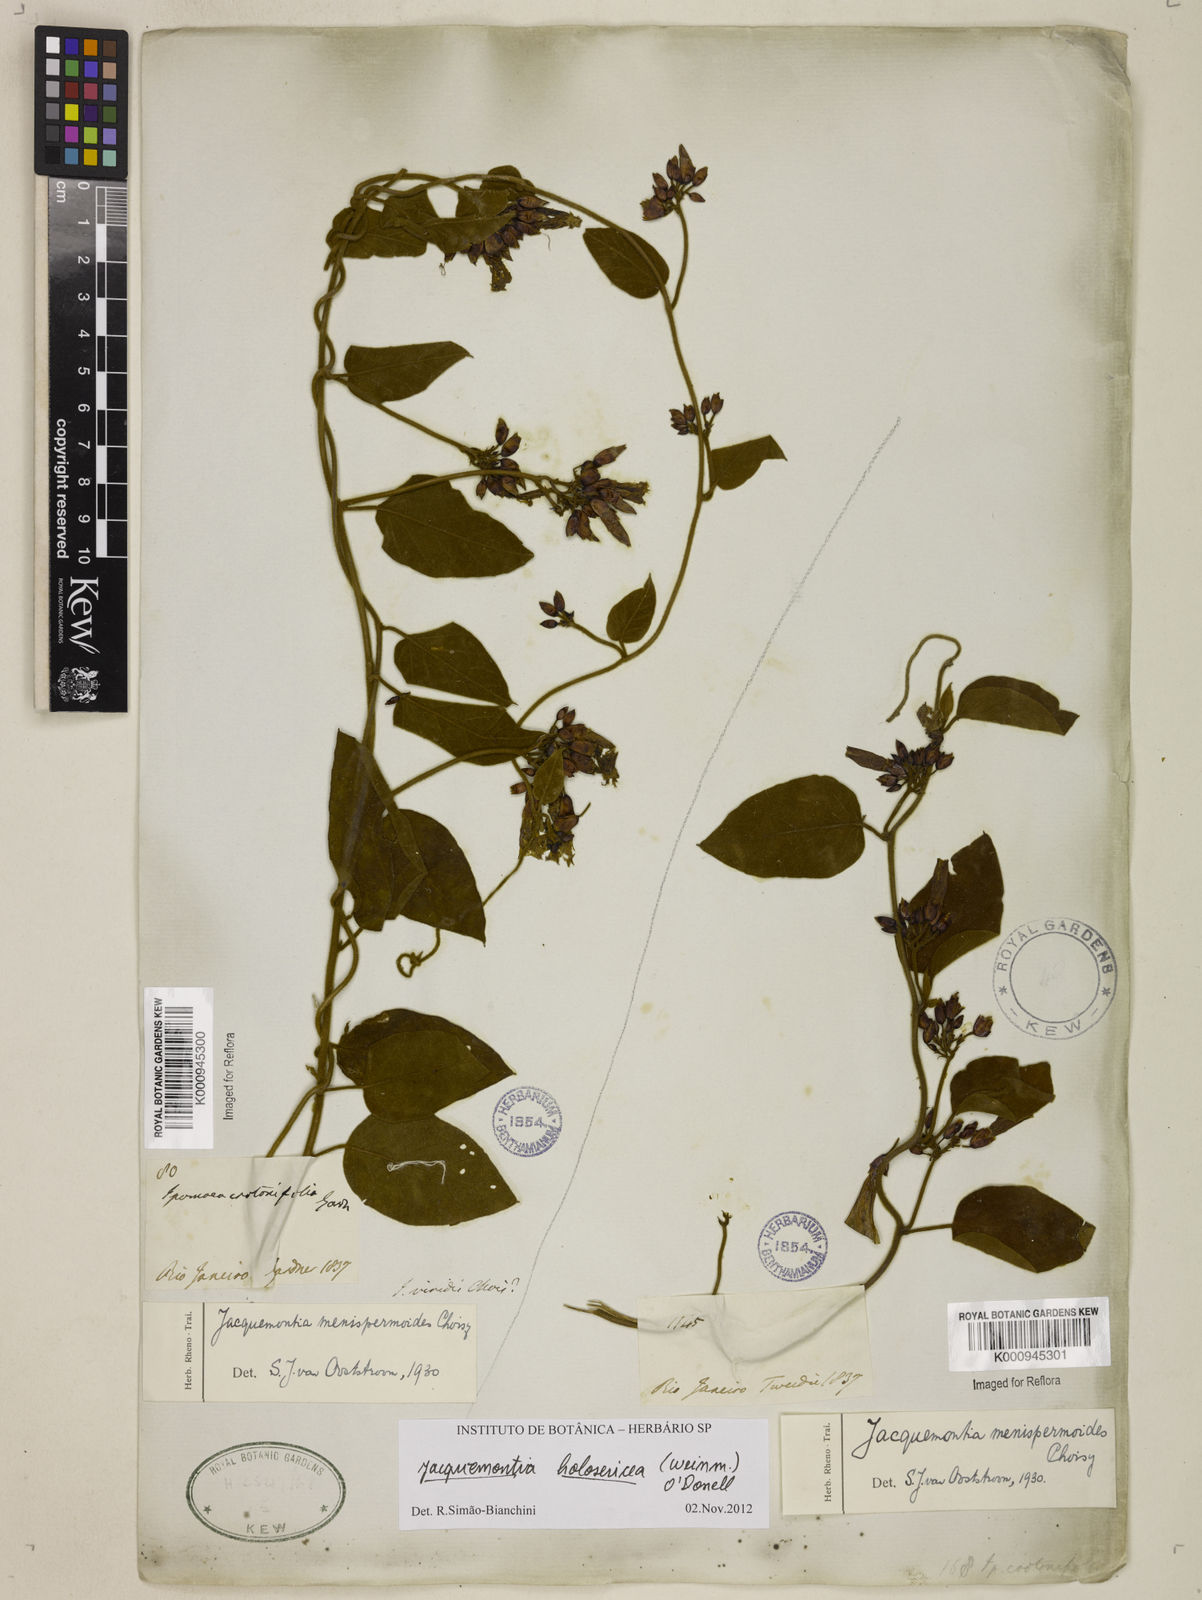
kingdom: Plantae
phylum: Tracheophyta
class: Magnoliopsida
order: Solanales
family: Convolvulaceae
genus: Jacquemontia
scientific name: Jacquemontia holosericea
